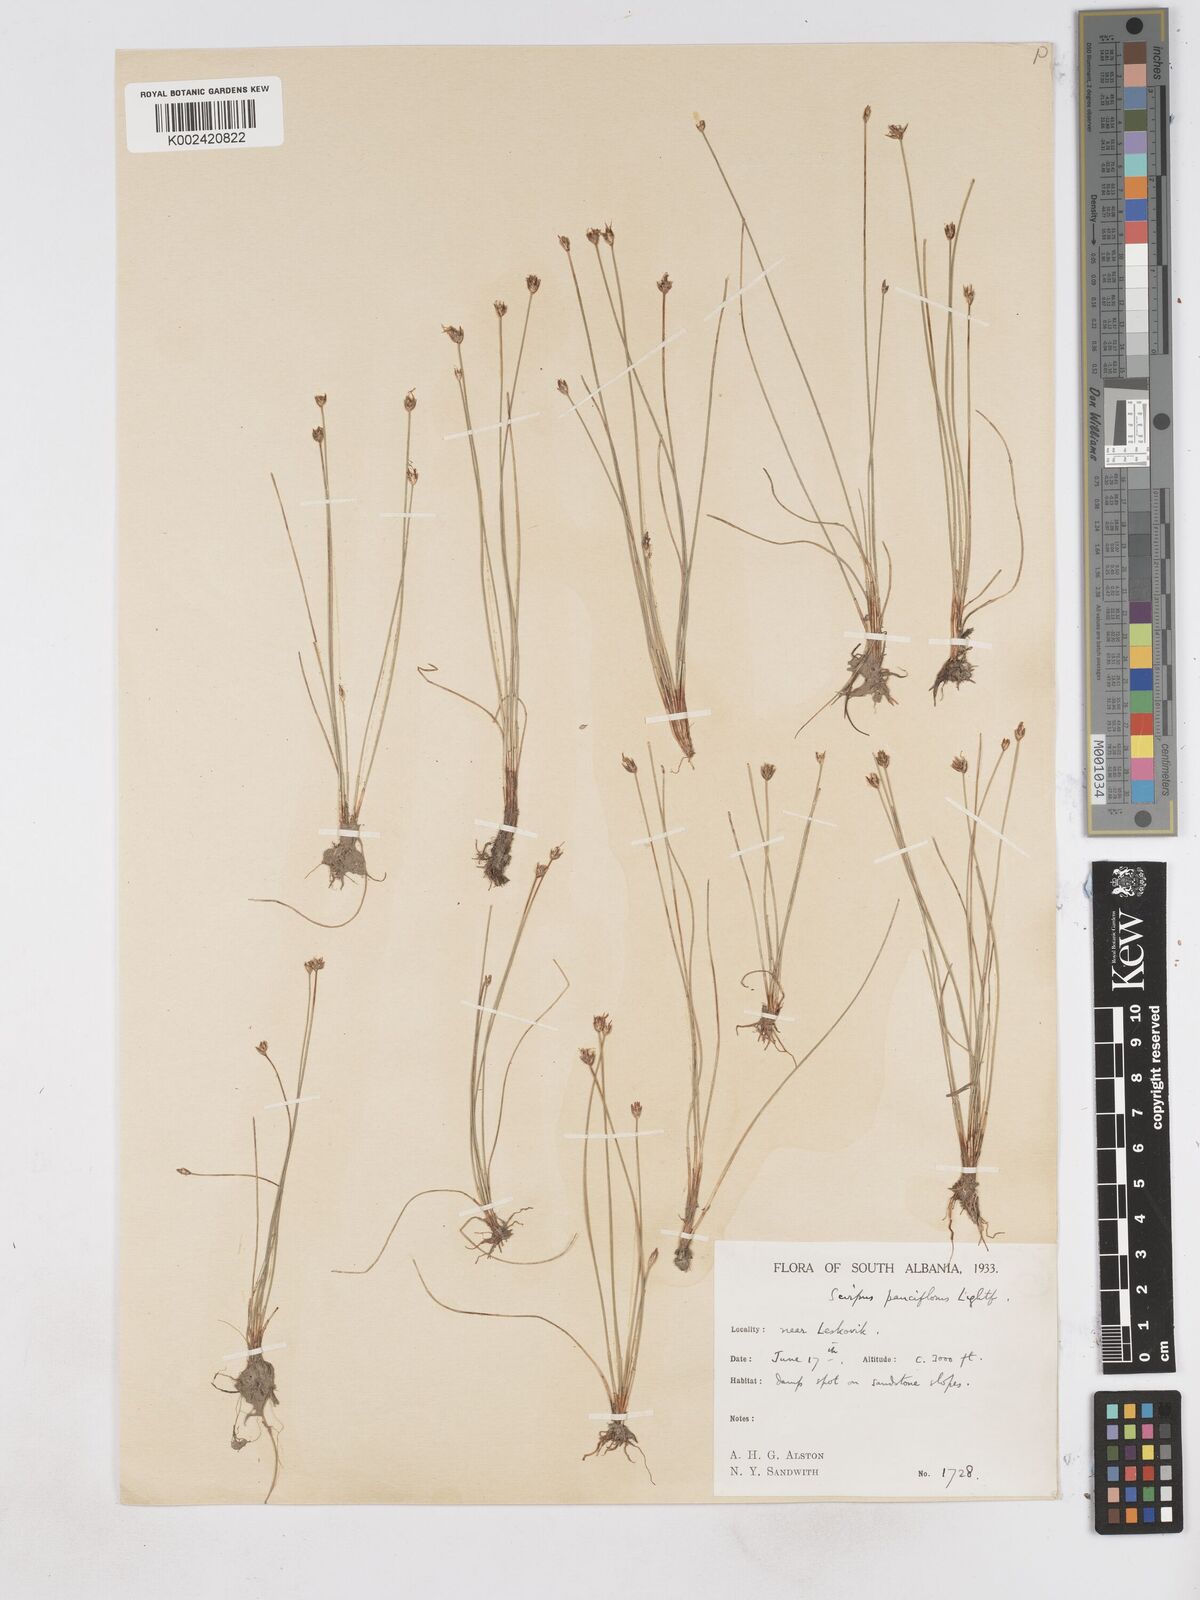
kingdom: Plantae
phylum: Tracheophyta
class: Liliopsida
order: Poales
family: Cyperaceae
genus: Eleocharis
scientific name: Eleocharis quinqueflora
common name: Few-flowered spike-rush
